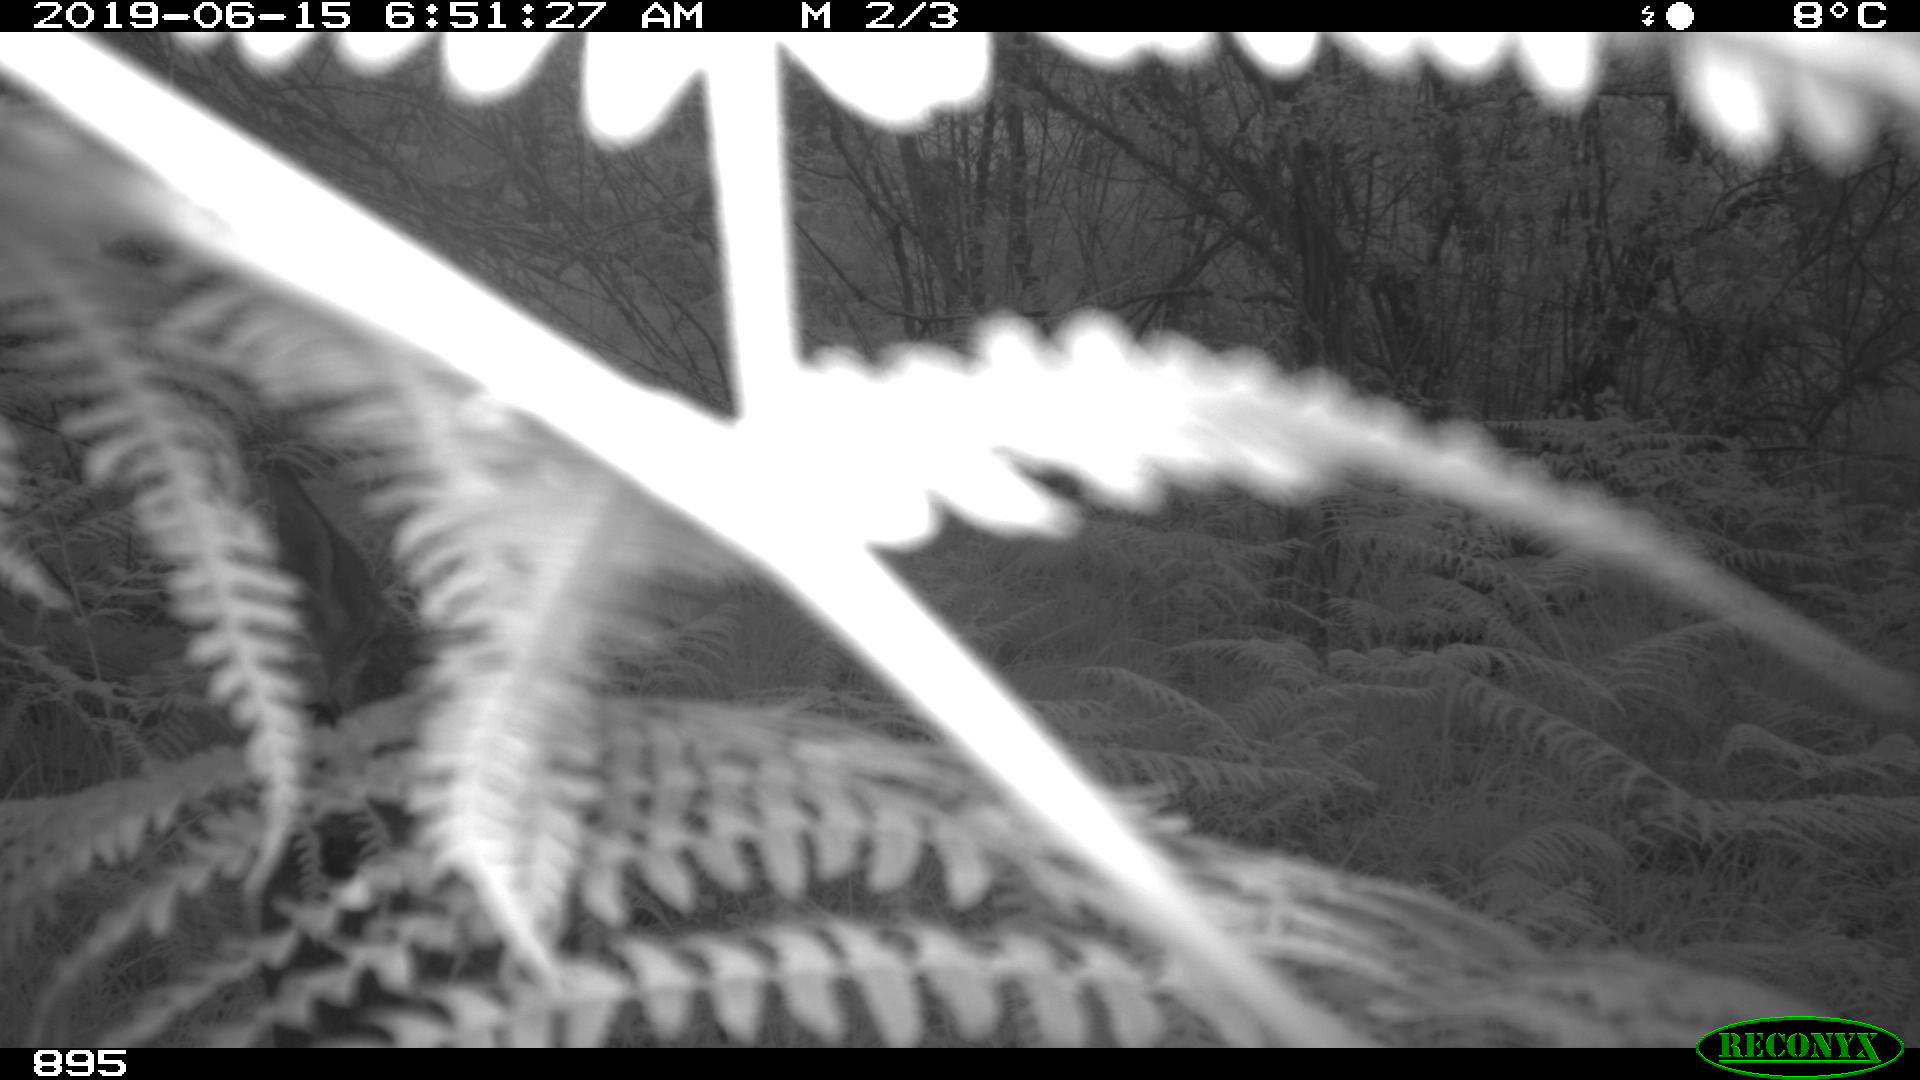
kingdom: Animalia
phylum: Chordata
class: Mammalia
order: Artiodactyla
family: Cervidae
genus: Capreolus
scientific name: Capreolus capreolus
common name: Western roe deer
